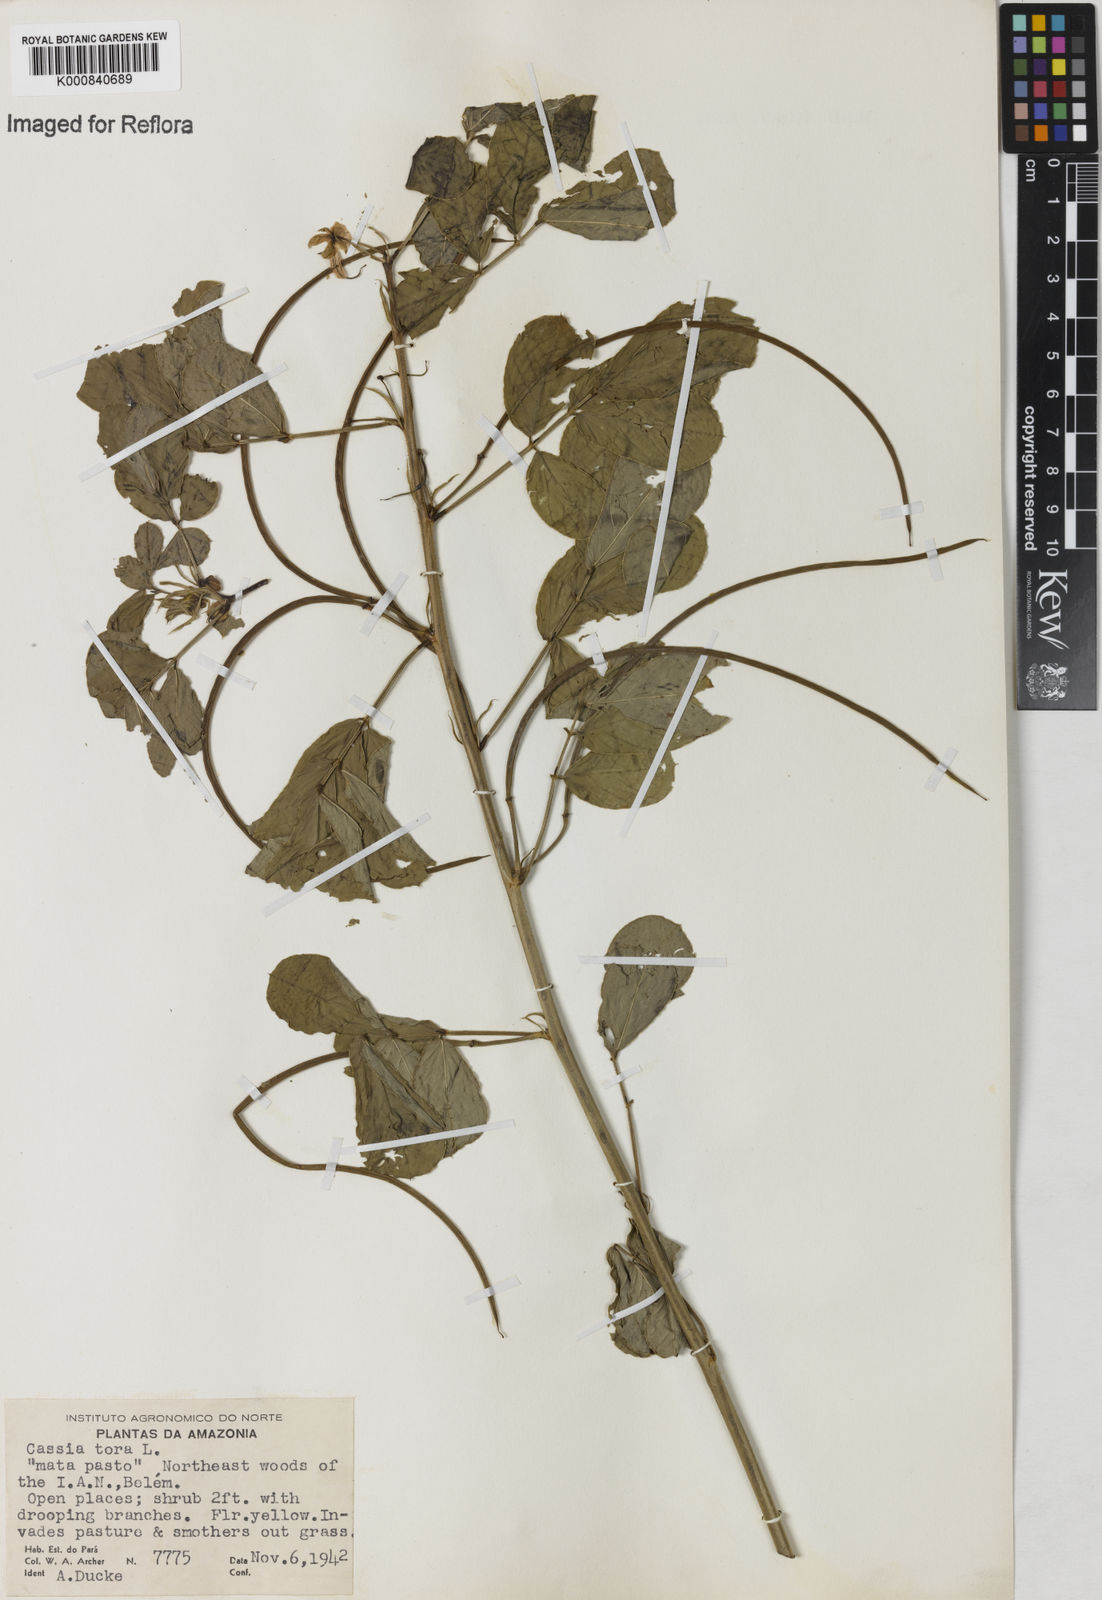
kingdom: Plantae
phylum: Tracheophyta
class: Magnoliopsida
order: Fabales
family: Fabaceae
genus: Senna
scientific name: Senna obtusifolia
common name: Java-bean
